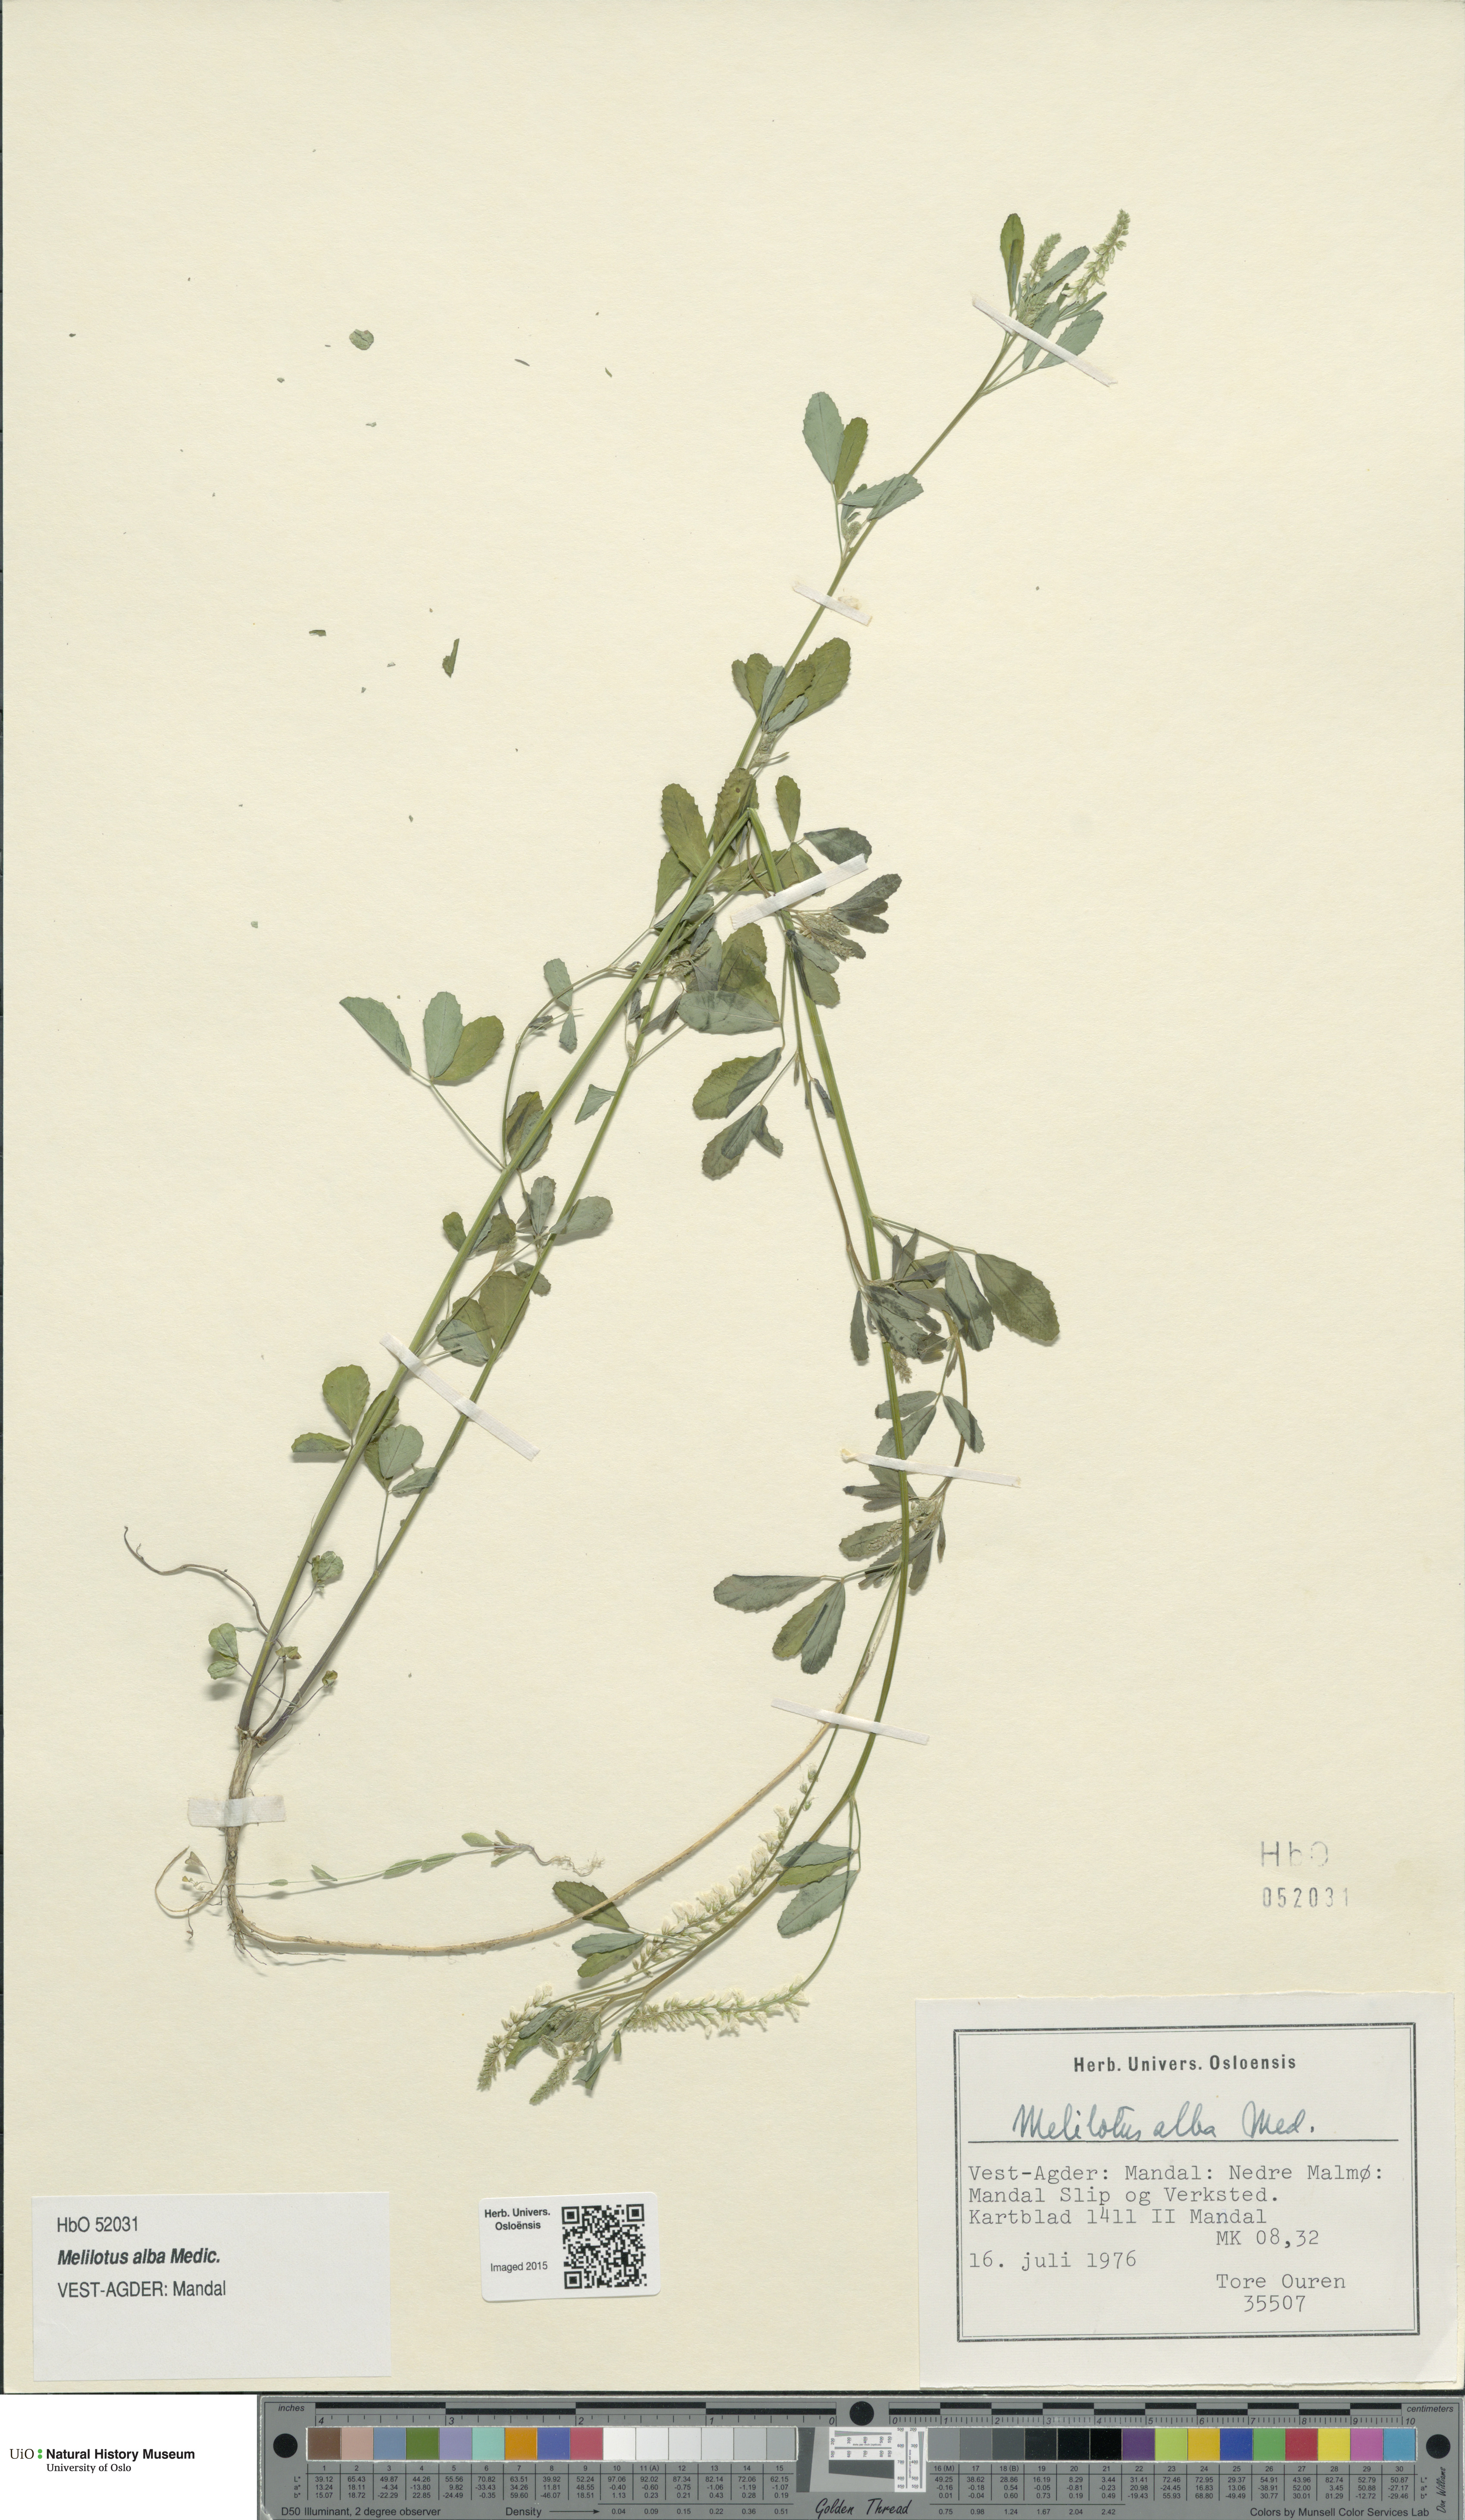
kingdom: Plantae
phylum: Tracheophyta
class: Magnoliopsida
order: Fabales
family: Fabaceae
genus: Melilotus
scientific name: Melilotus albus
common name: White melilot
